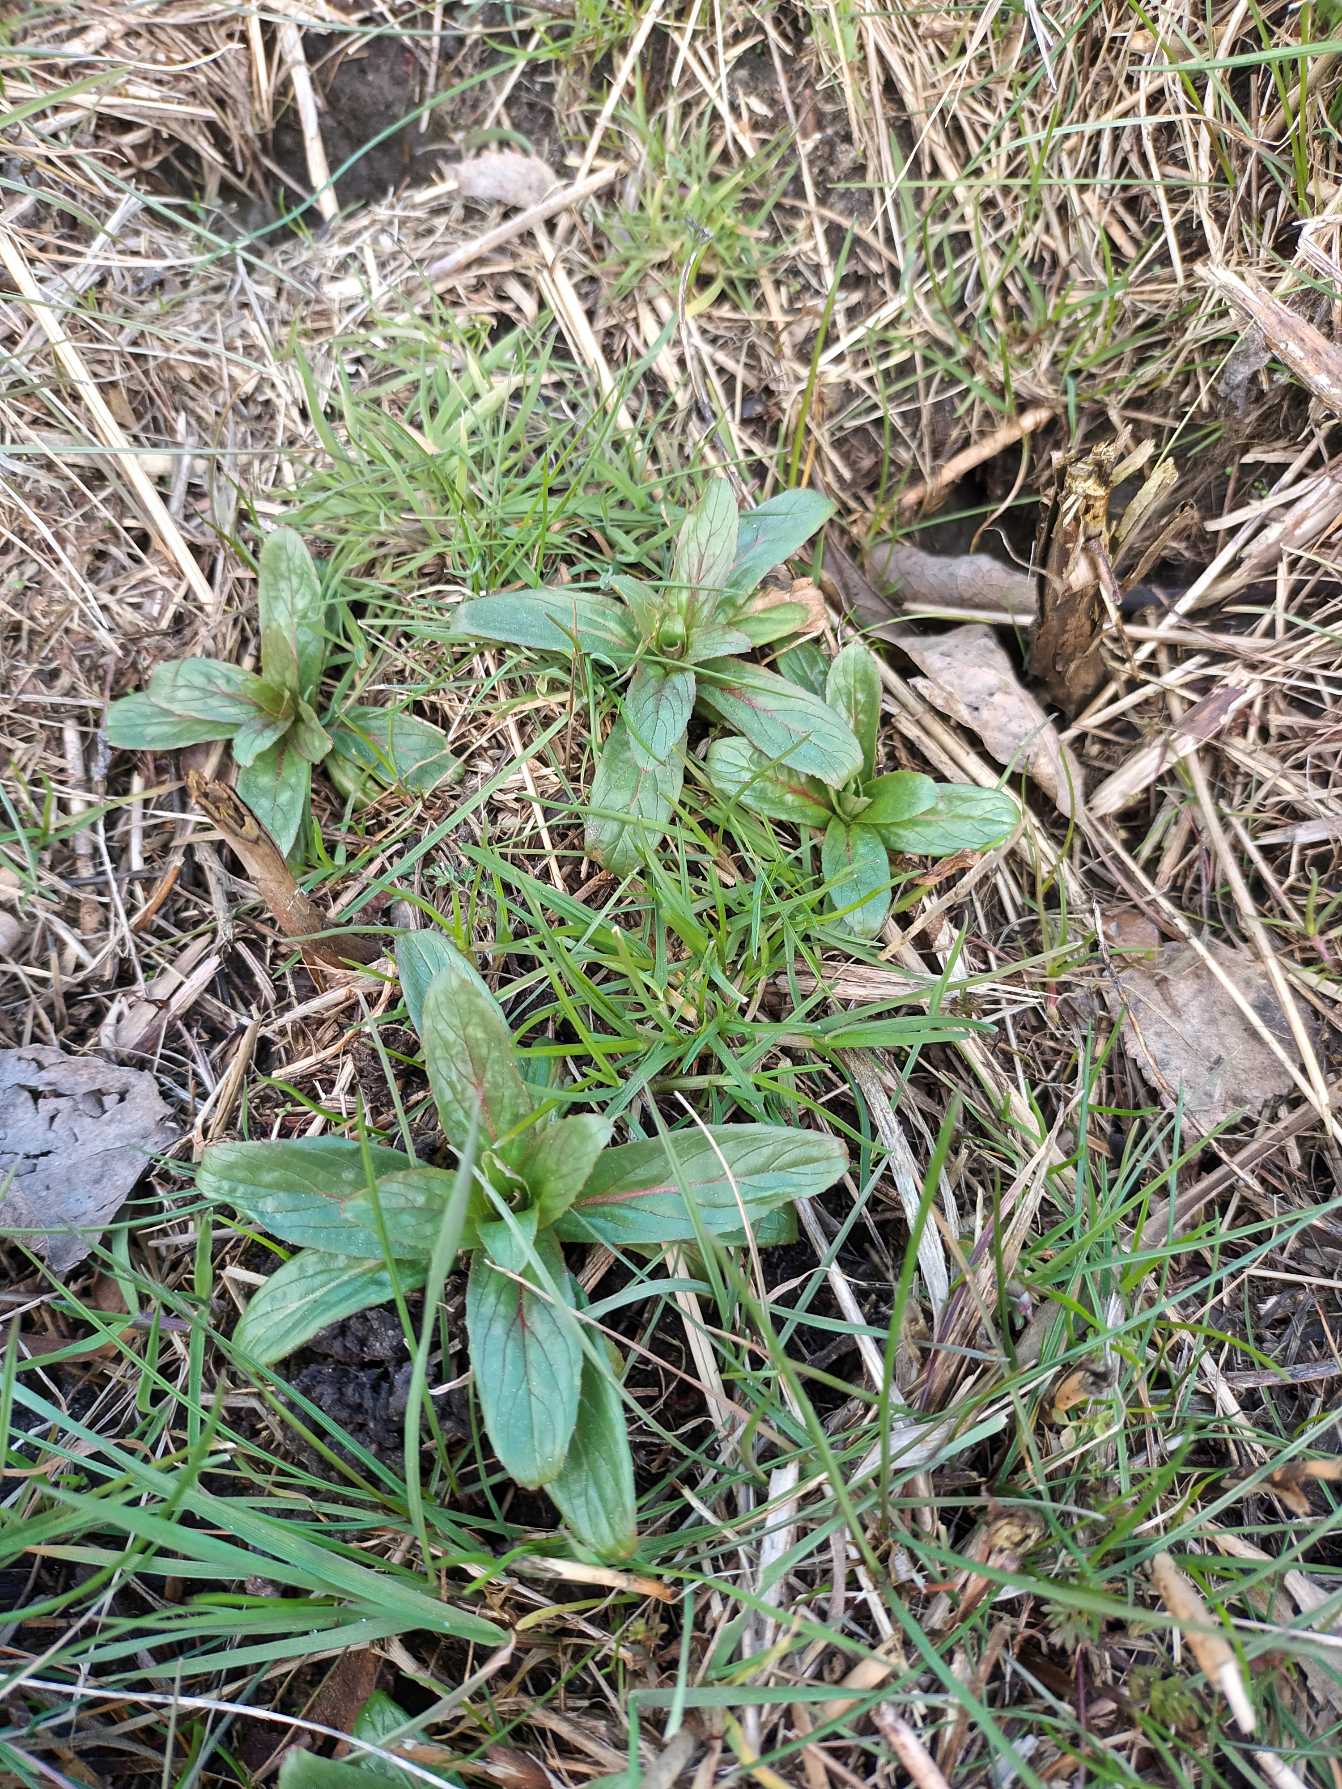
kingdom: Plantae
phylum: Tracheophyta
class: Magnoliopsida
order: Myrtales
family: Onagraceae
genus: Epilobium
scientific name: Epilobium hirsutum
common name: Lådden dueurt
